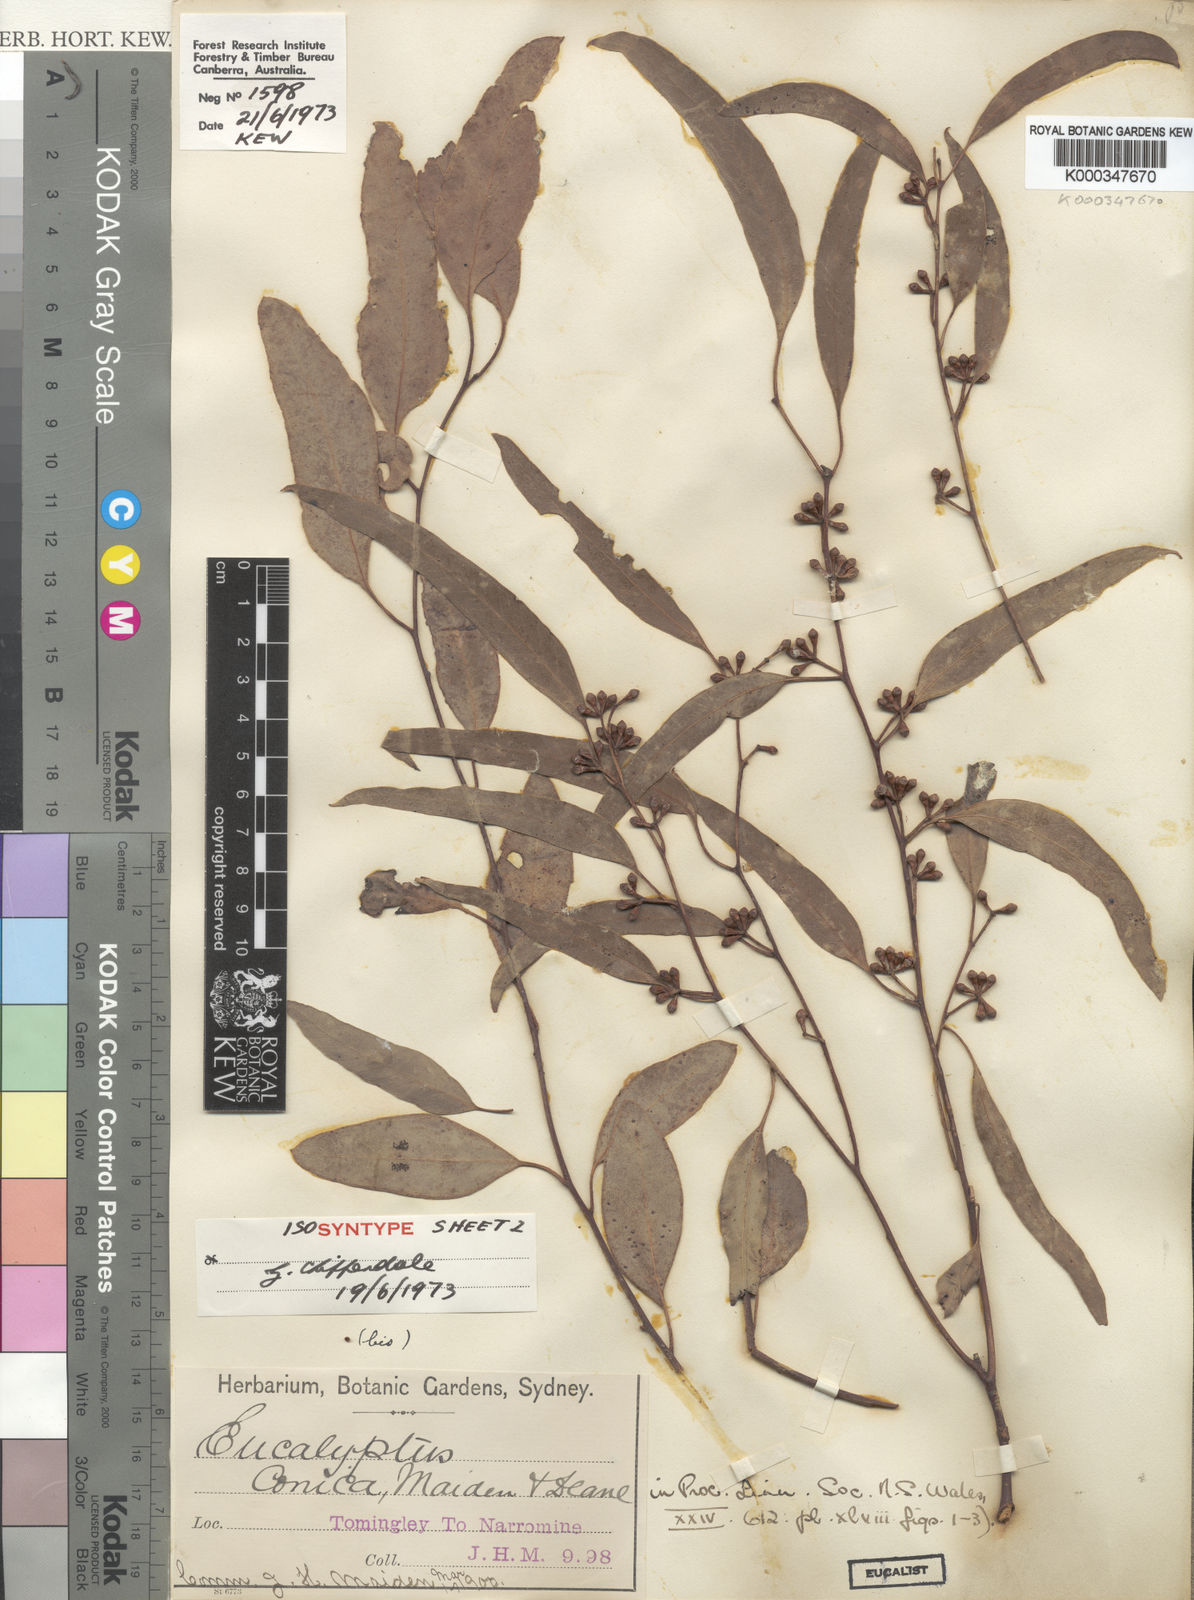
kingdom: Plantae
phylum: Tracheophyta
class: Magnoliopsida
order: Myrtales
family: Myrtaceae
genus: Eucalyptus
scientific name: Eucalyptus conica
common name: Fuzzy-box
